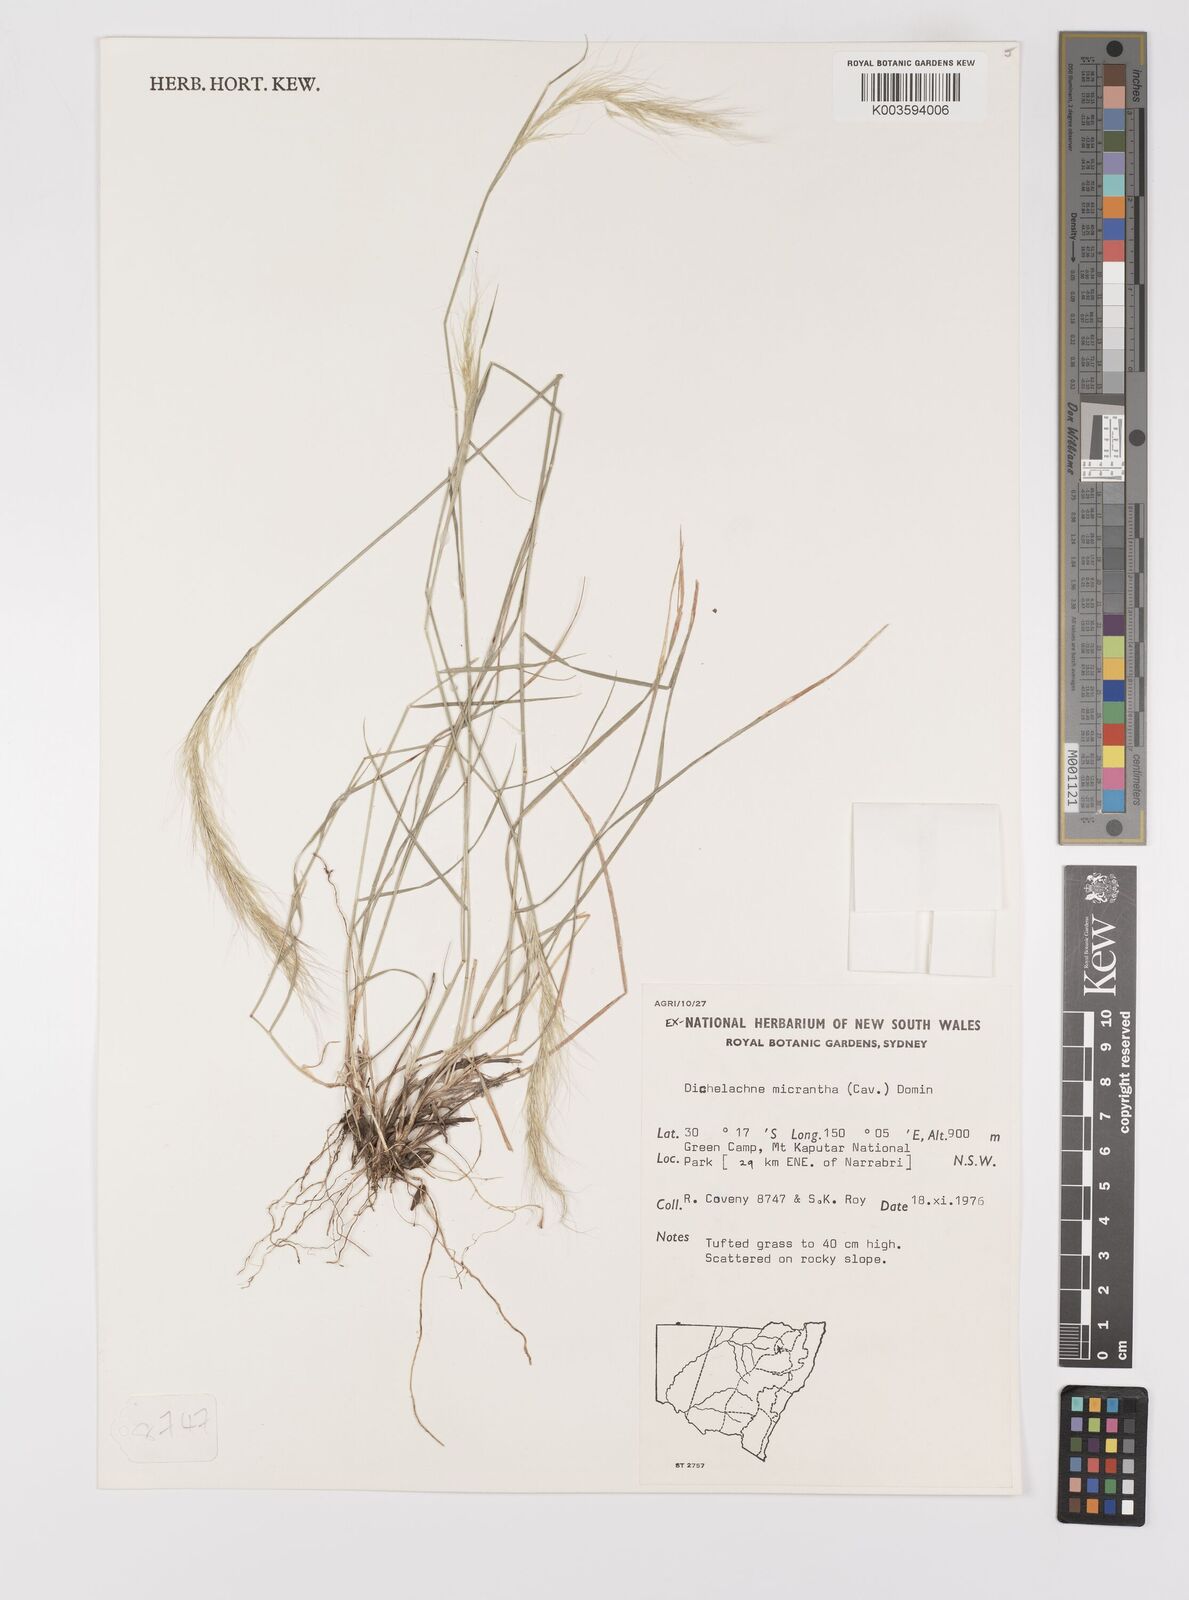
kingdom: Plantae
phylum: Tracheophyta
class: Liliopsida
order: Poales
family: Poaceae
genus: Dichelachne
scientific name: Dichelachne micrantha
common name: Plumegrass
